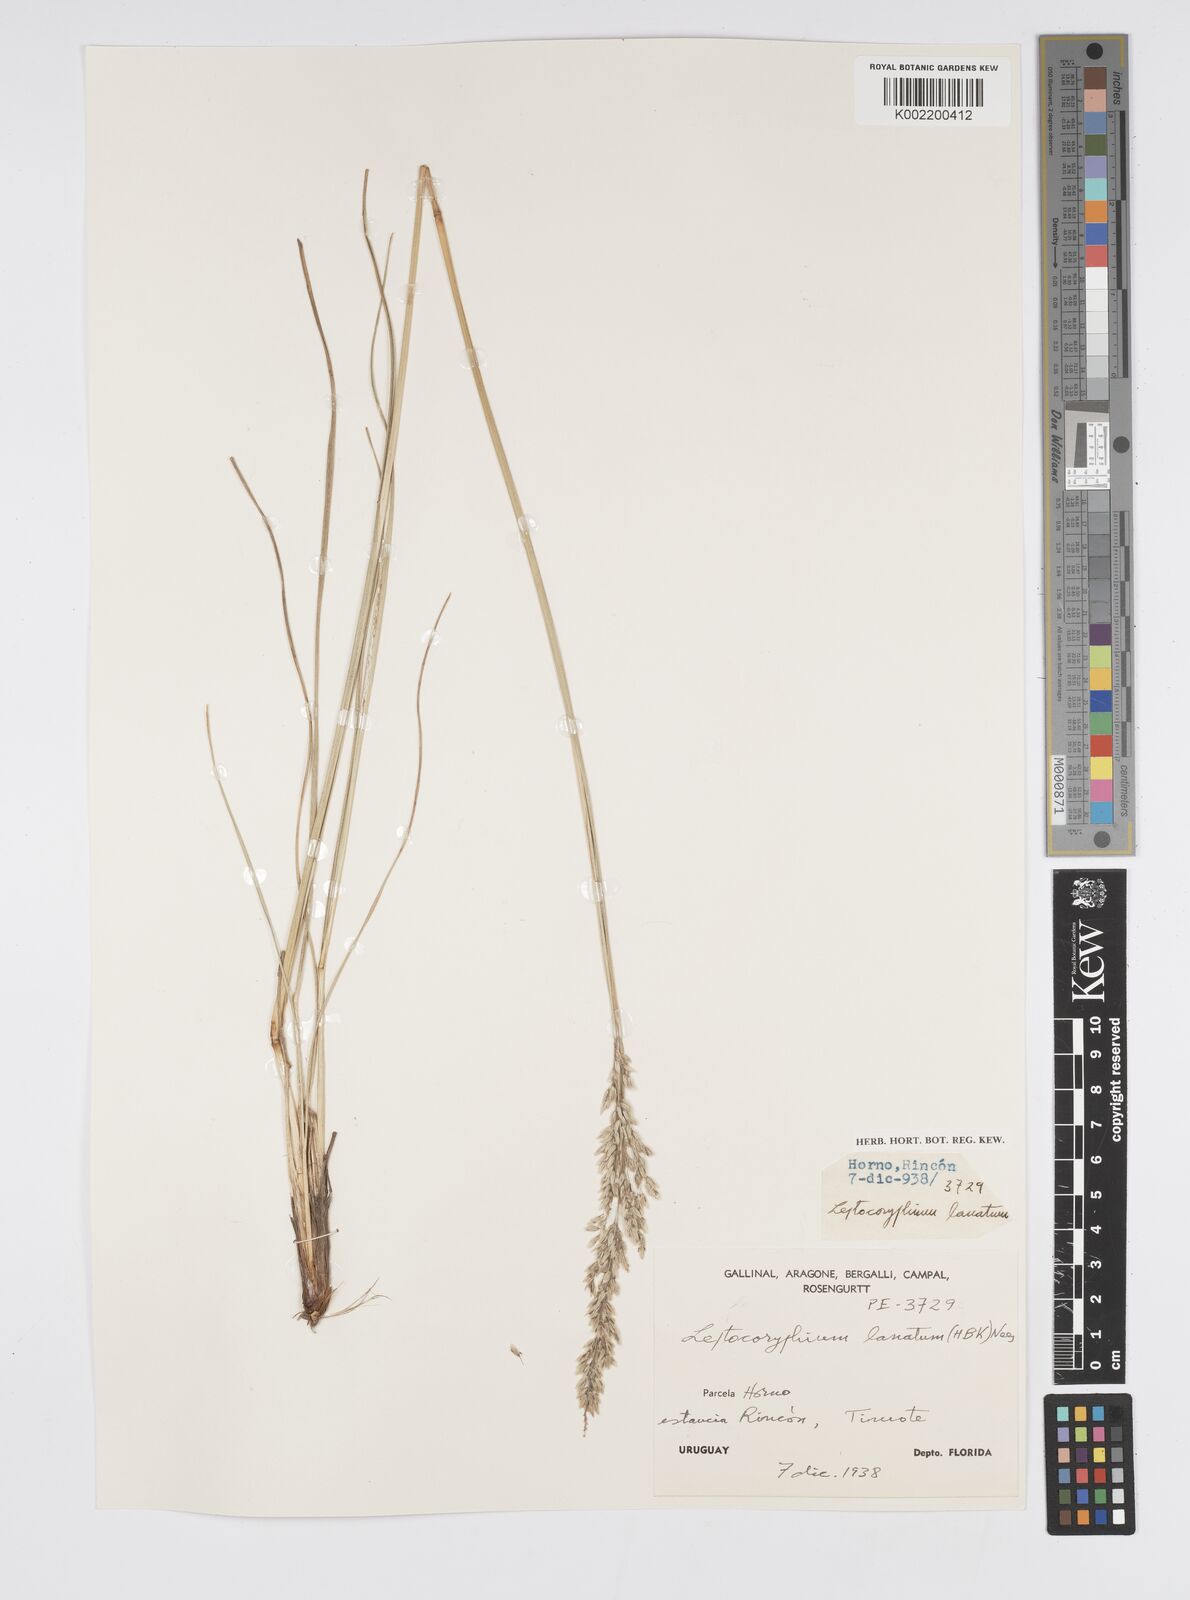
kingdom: Plantae
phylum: Tracheophyta
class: Liliopsida
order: Poales
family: Poaceae
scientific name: Poaceae
